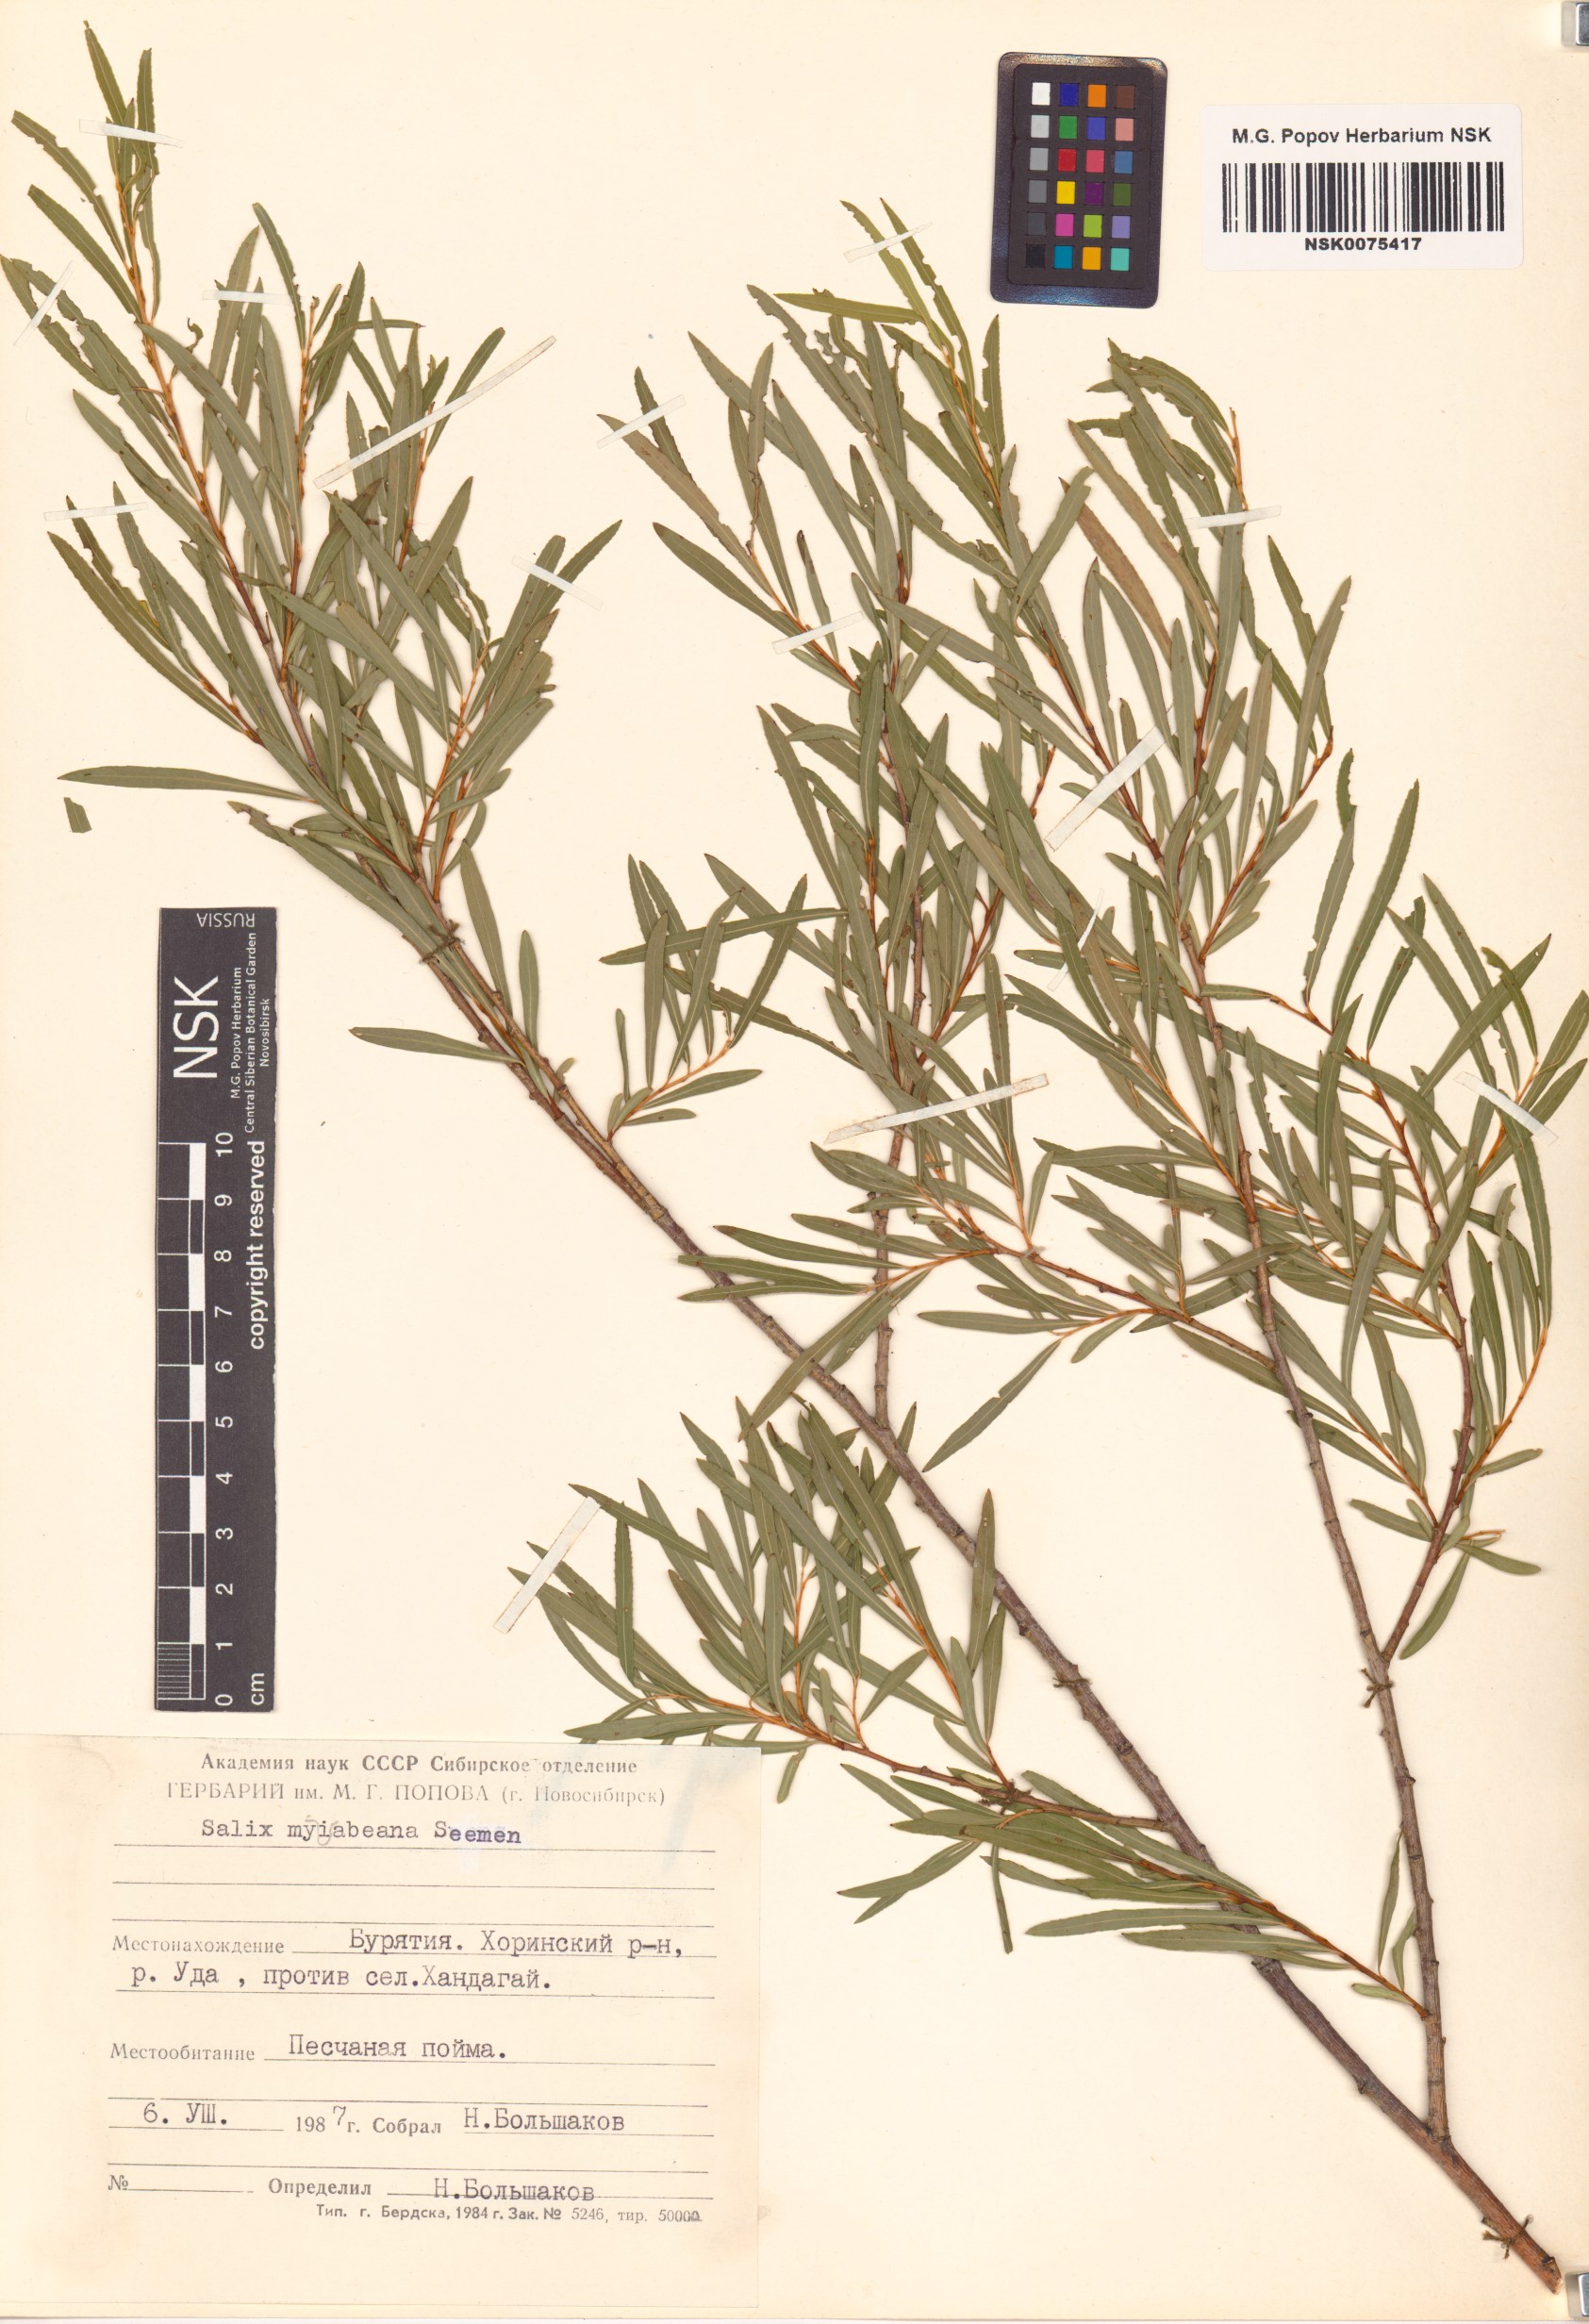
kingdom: Plantae
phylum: Tracheophyta
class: Magnoliopsida
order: Malpighiales
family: Salicaceae
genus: Salix
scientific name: Salix miyabeana
